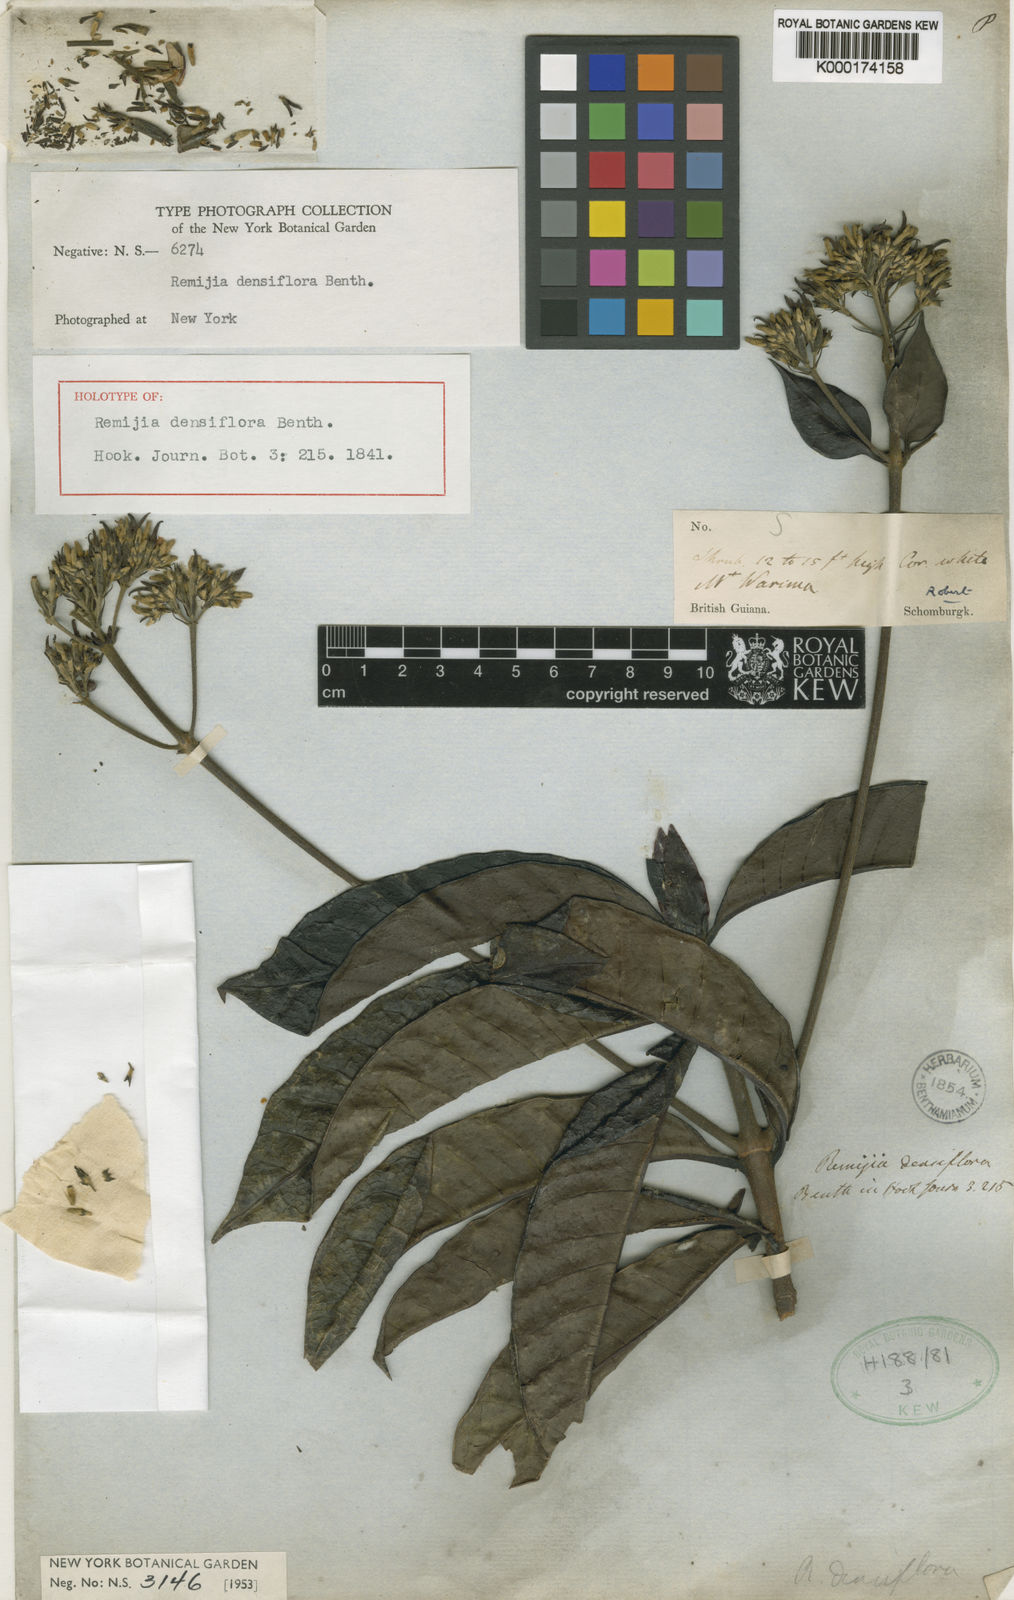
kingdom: Plantae
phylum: Tracheophyta
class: Magnoliopsida
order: Gentianales
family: Rubiaceae
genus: Remijia
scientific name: Remijia densiflora
